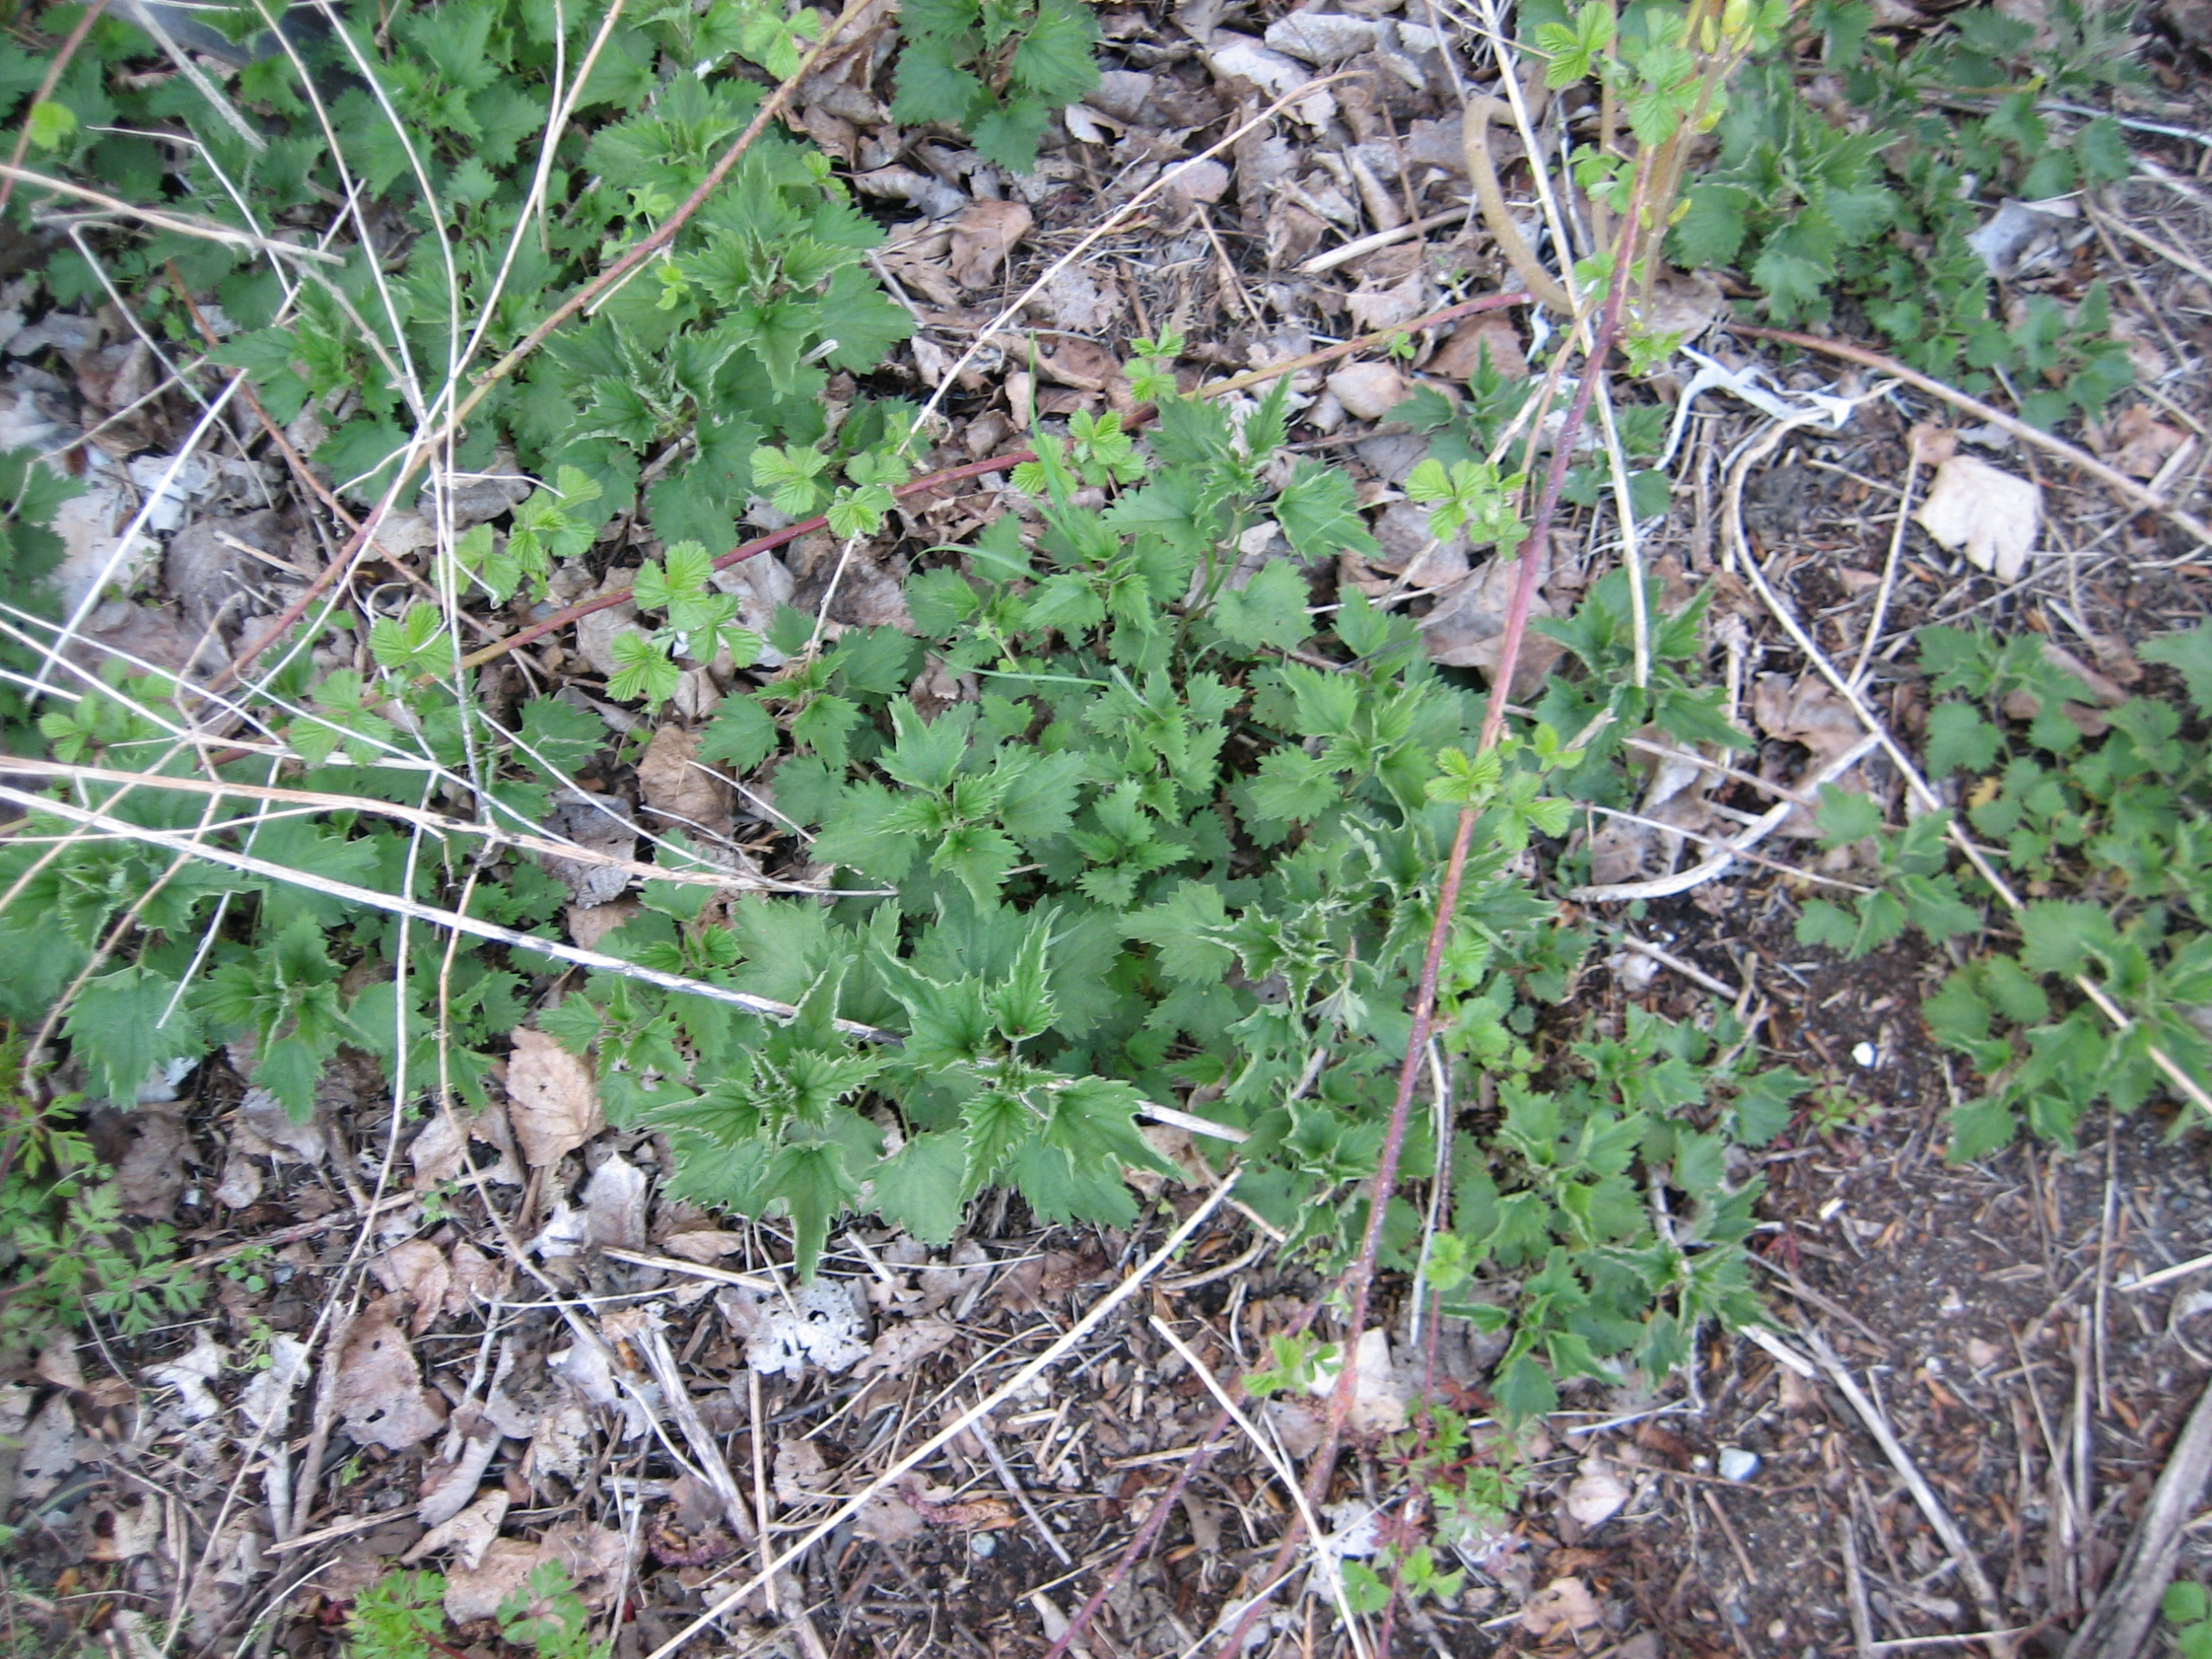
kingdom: Plantae
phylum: Tracheophyta
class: Magnoliopsida
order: Rosales
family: Urticaceae
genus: Urtica
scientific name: Urtica dioica
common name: Stor nælde
